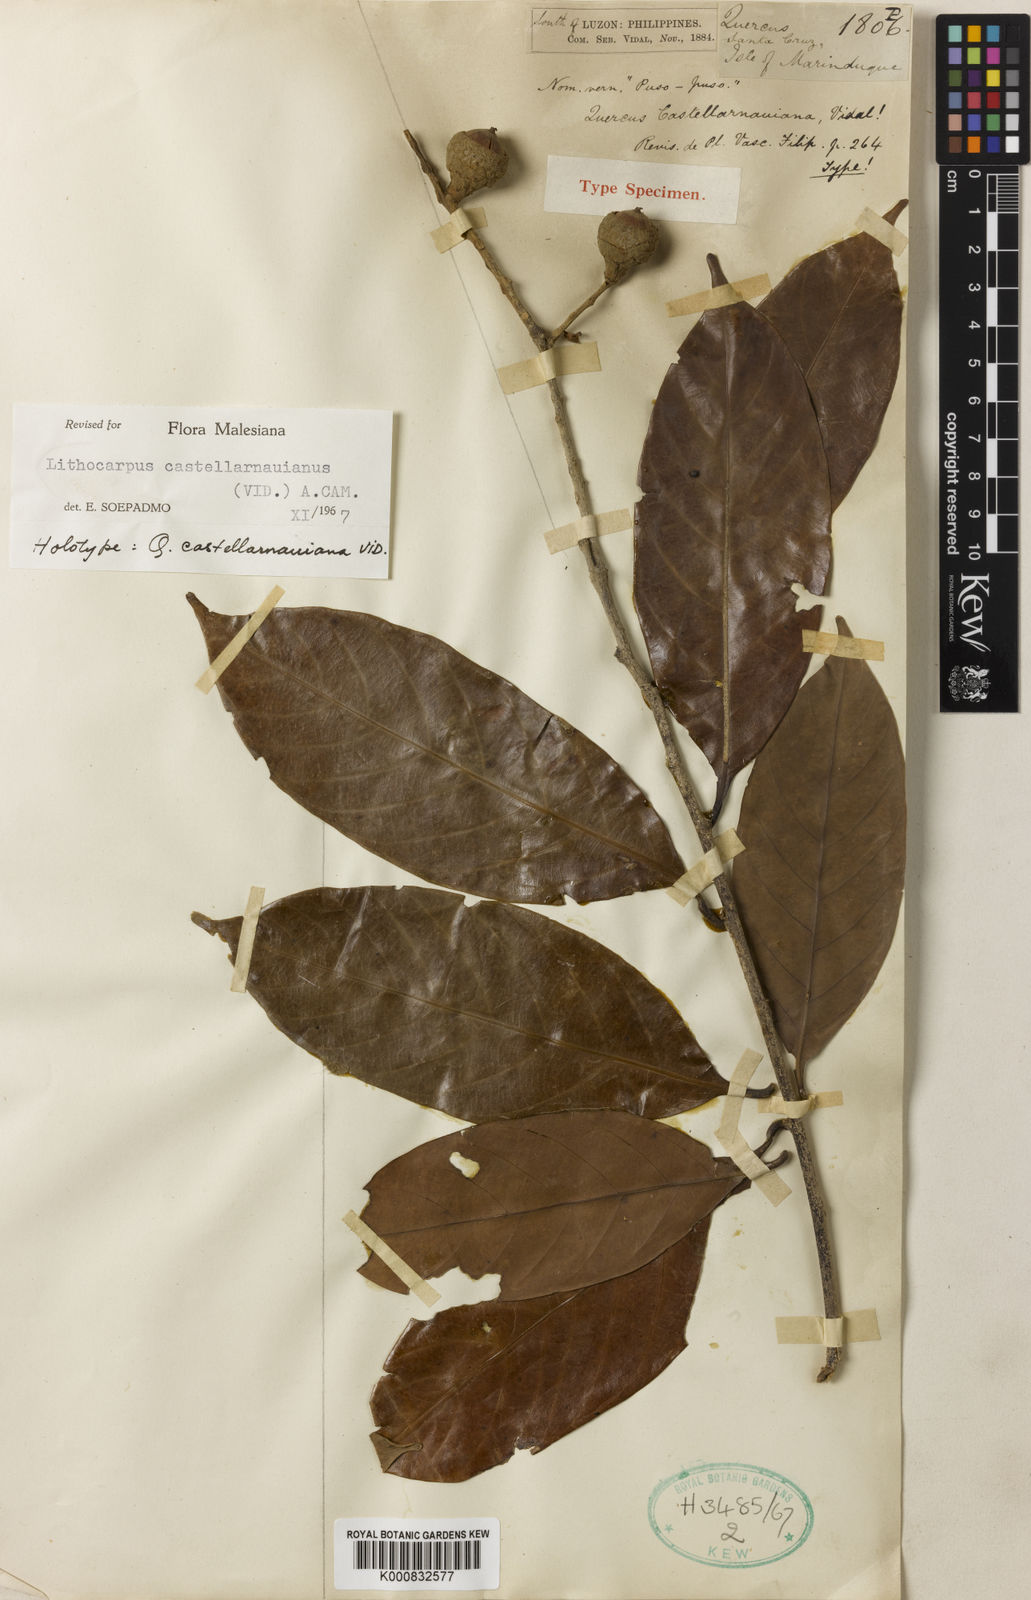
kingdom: Plantae
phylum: Tracheophyta
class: Magnoliopsida
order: Fagales
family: Fagaceae
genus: Lithocarpus
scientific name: Lithocarpus castellarnauianus
